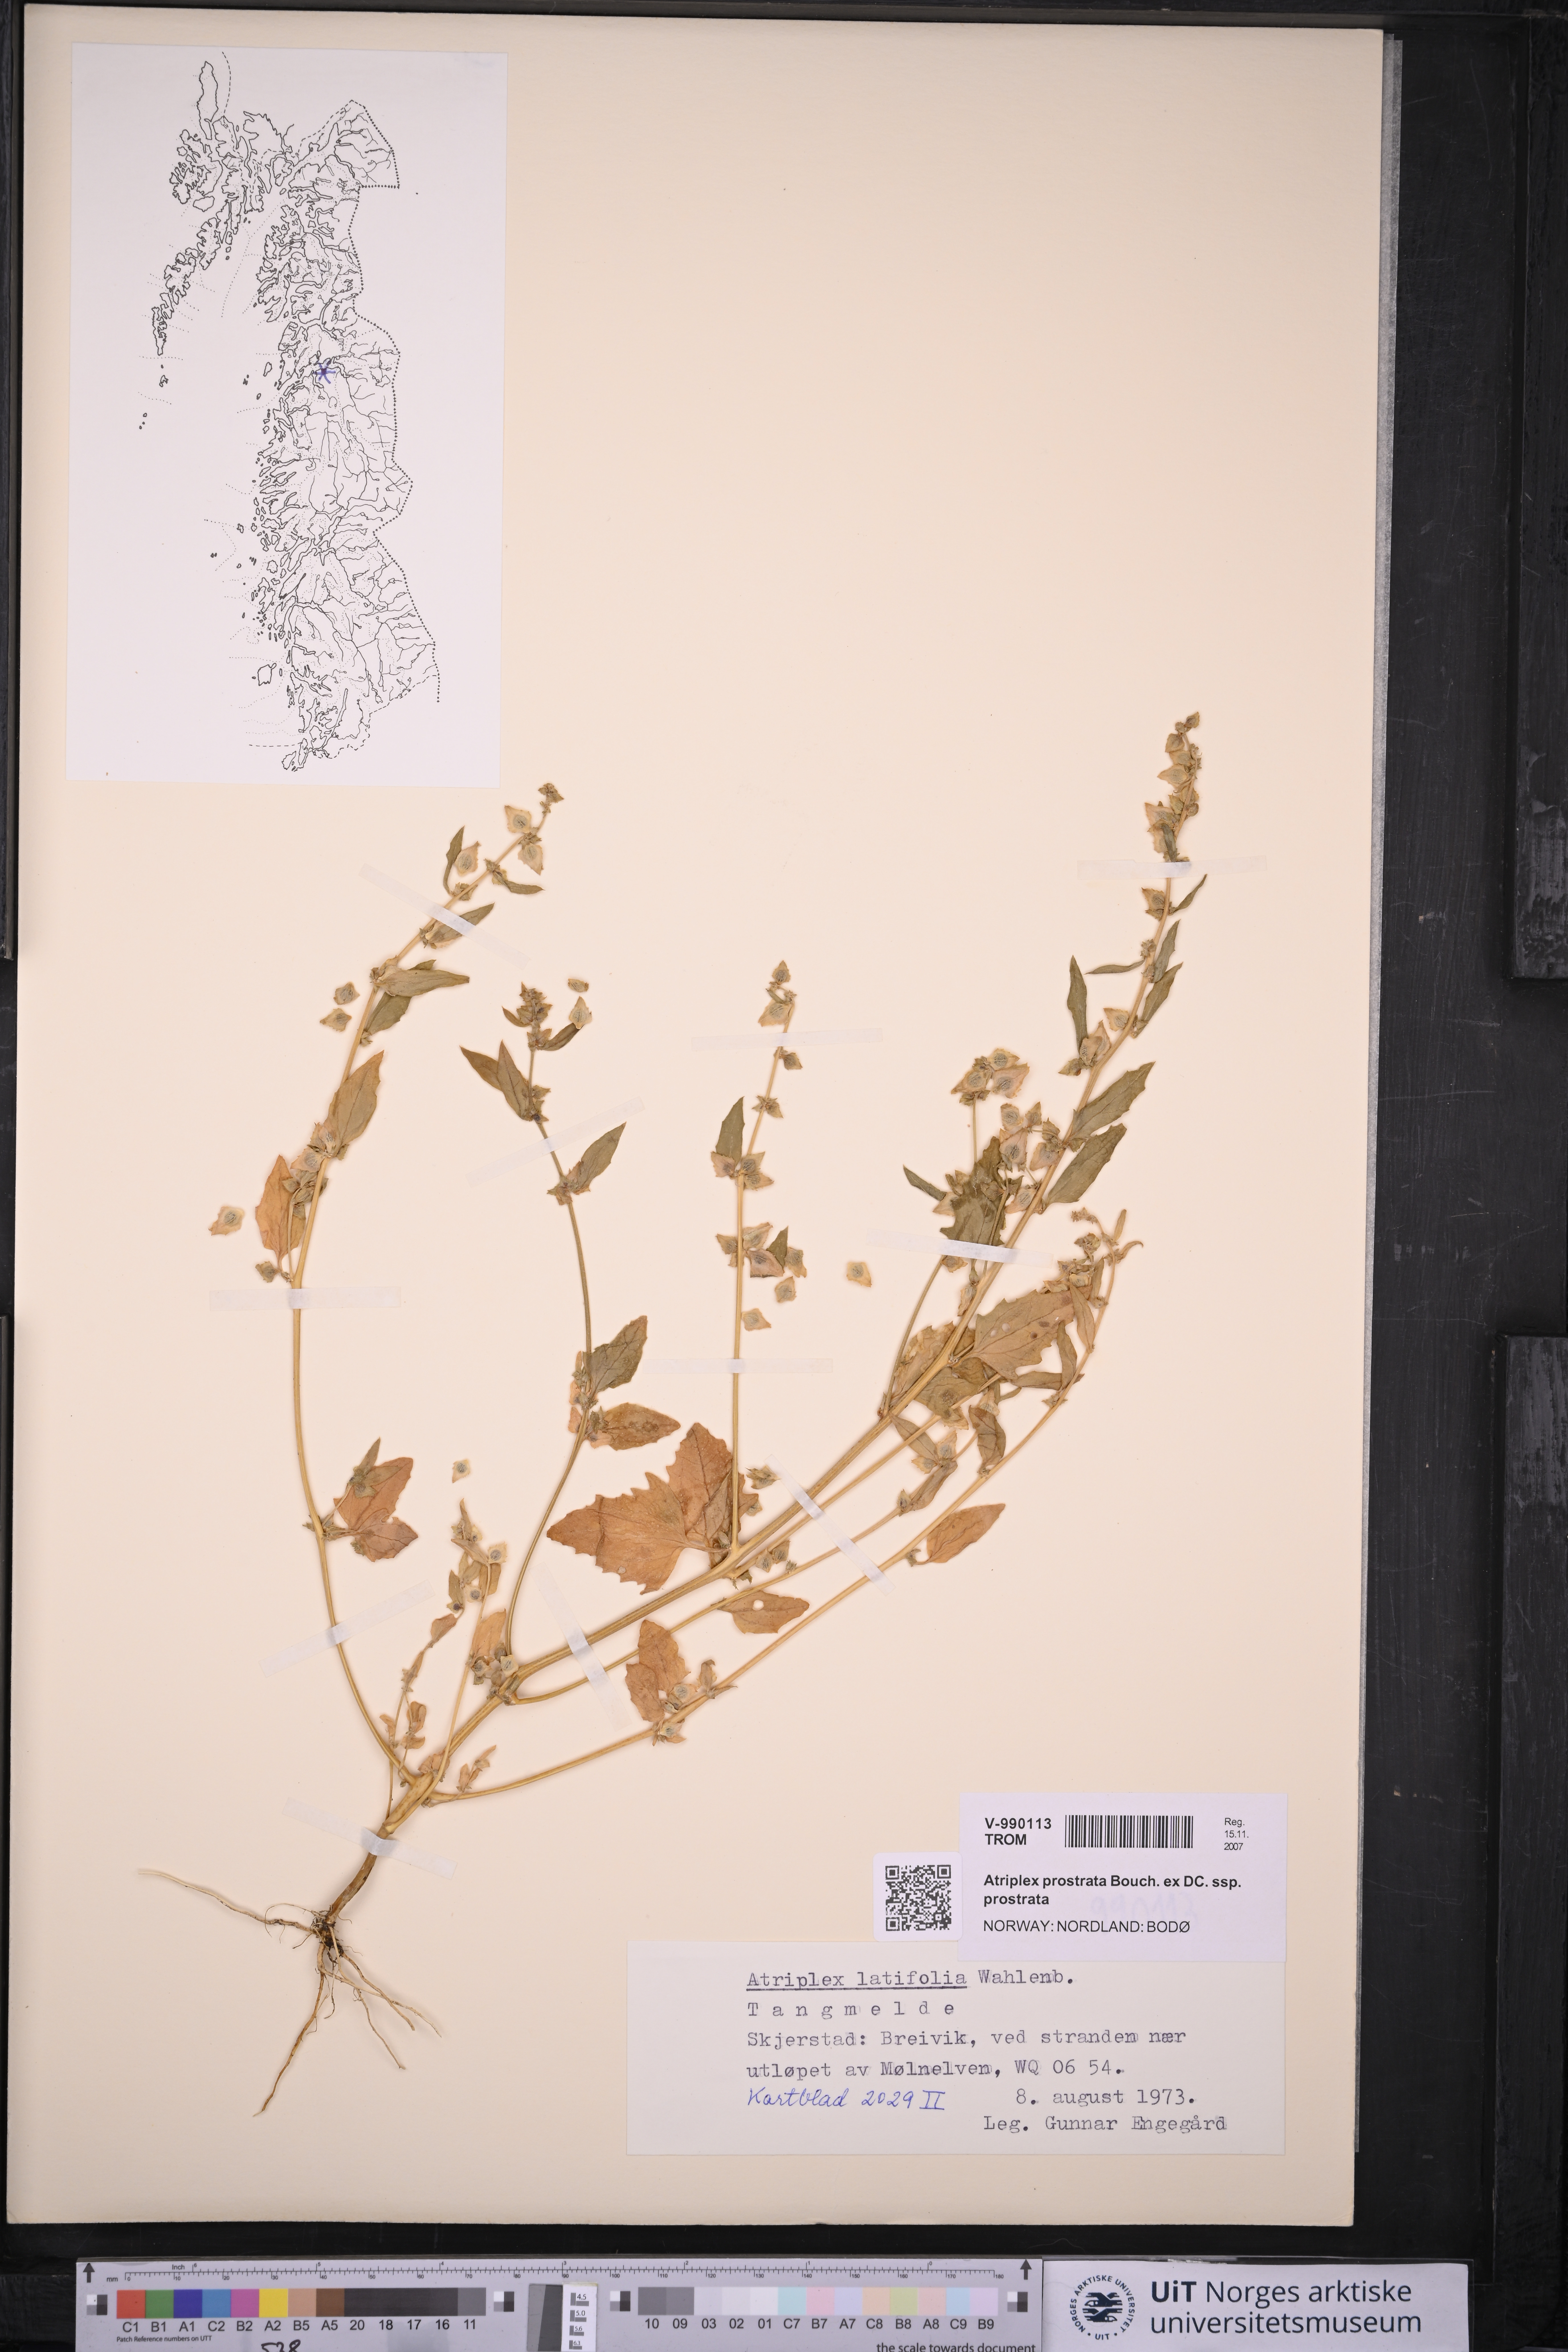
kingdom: Plantae
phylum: Tracheophyta
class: Magnoliopsida
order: Caryophyllales
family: Amaranthaceae
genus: Atriplex
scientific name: Atriplex prostrata
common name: Spear-leaved orache
